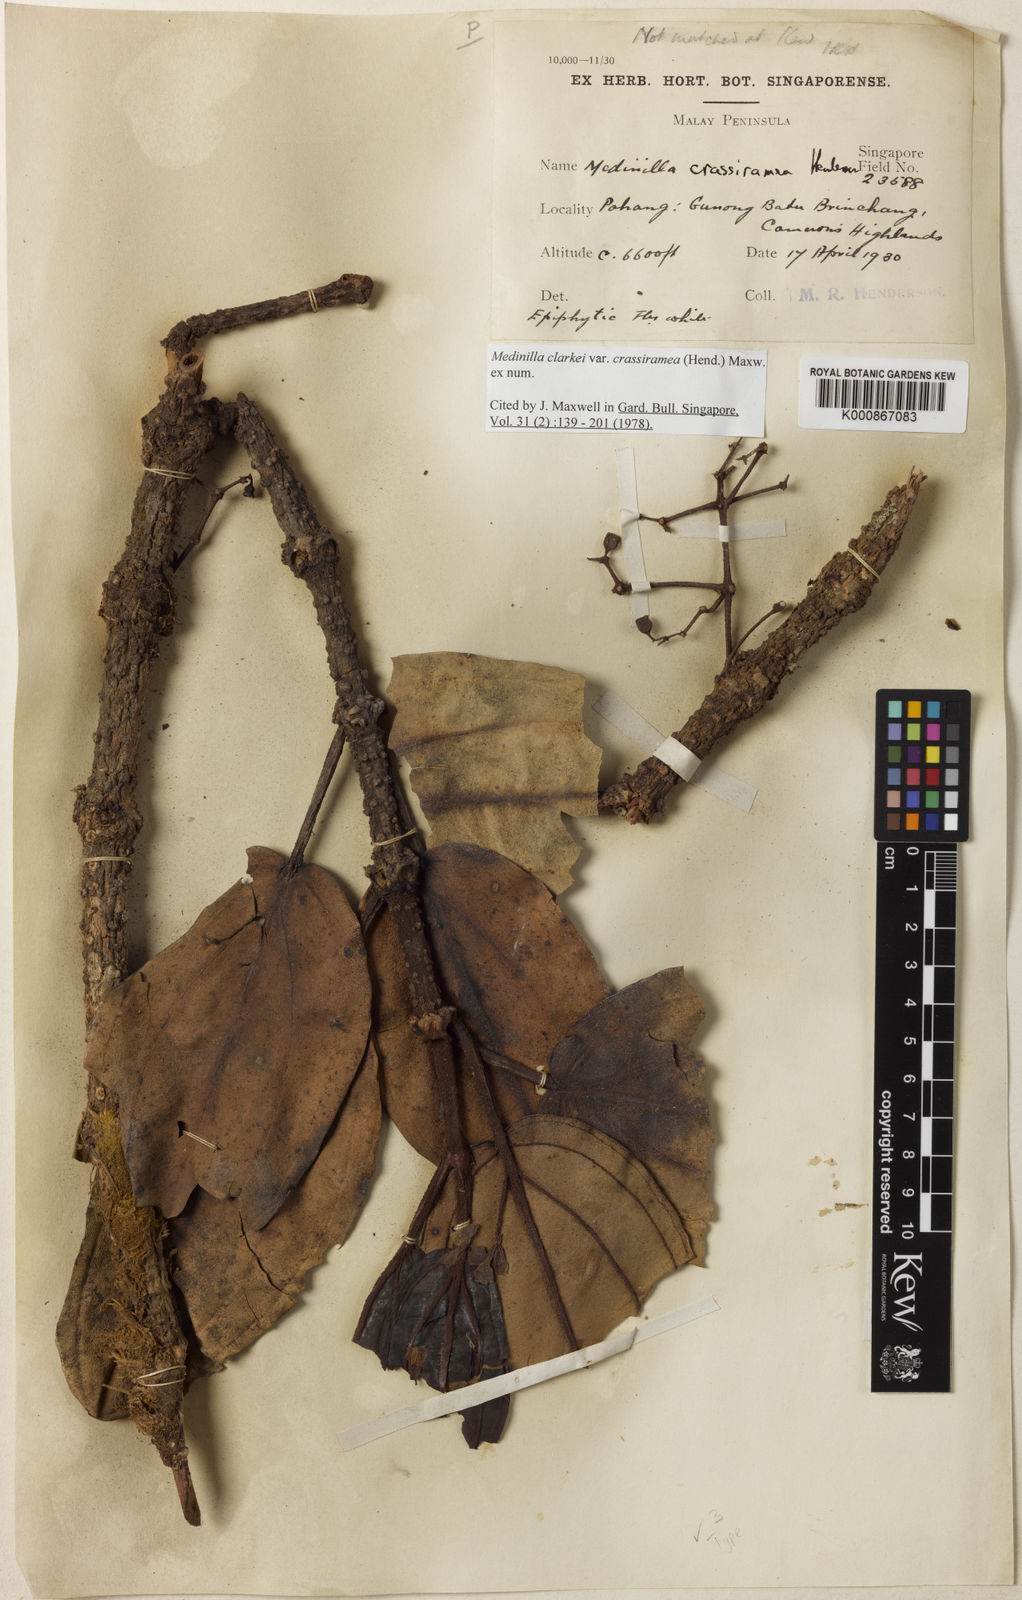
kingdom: Plantae
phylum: Tracheophyta
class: Magnoliopsida
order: Myrtales
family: Melastomataceae
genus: Medinilla
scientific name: Medinilla clarkei
